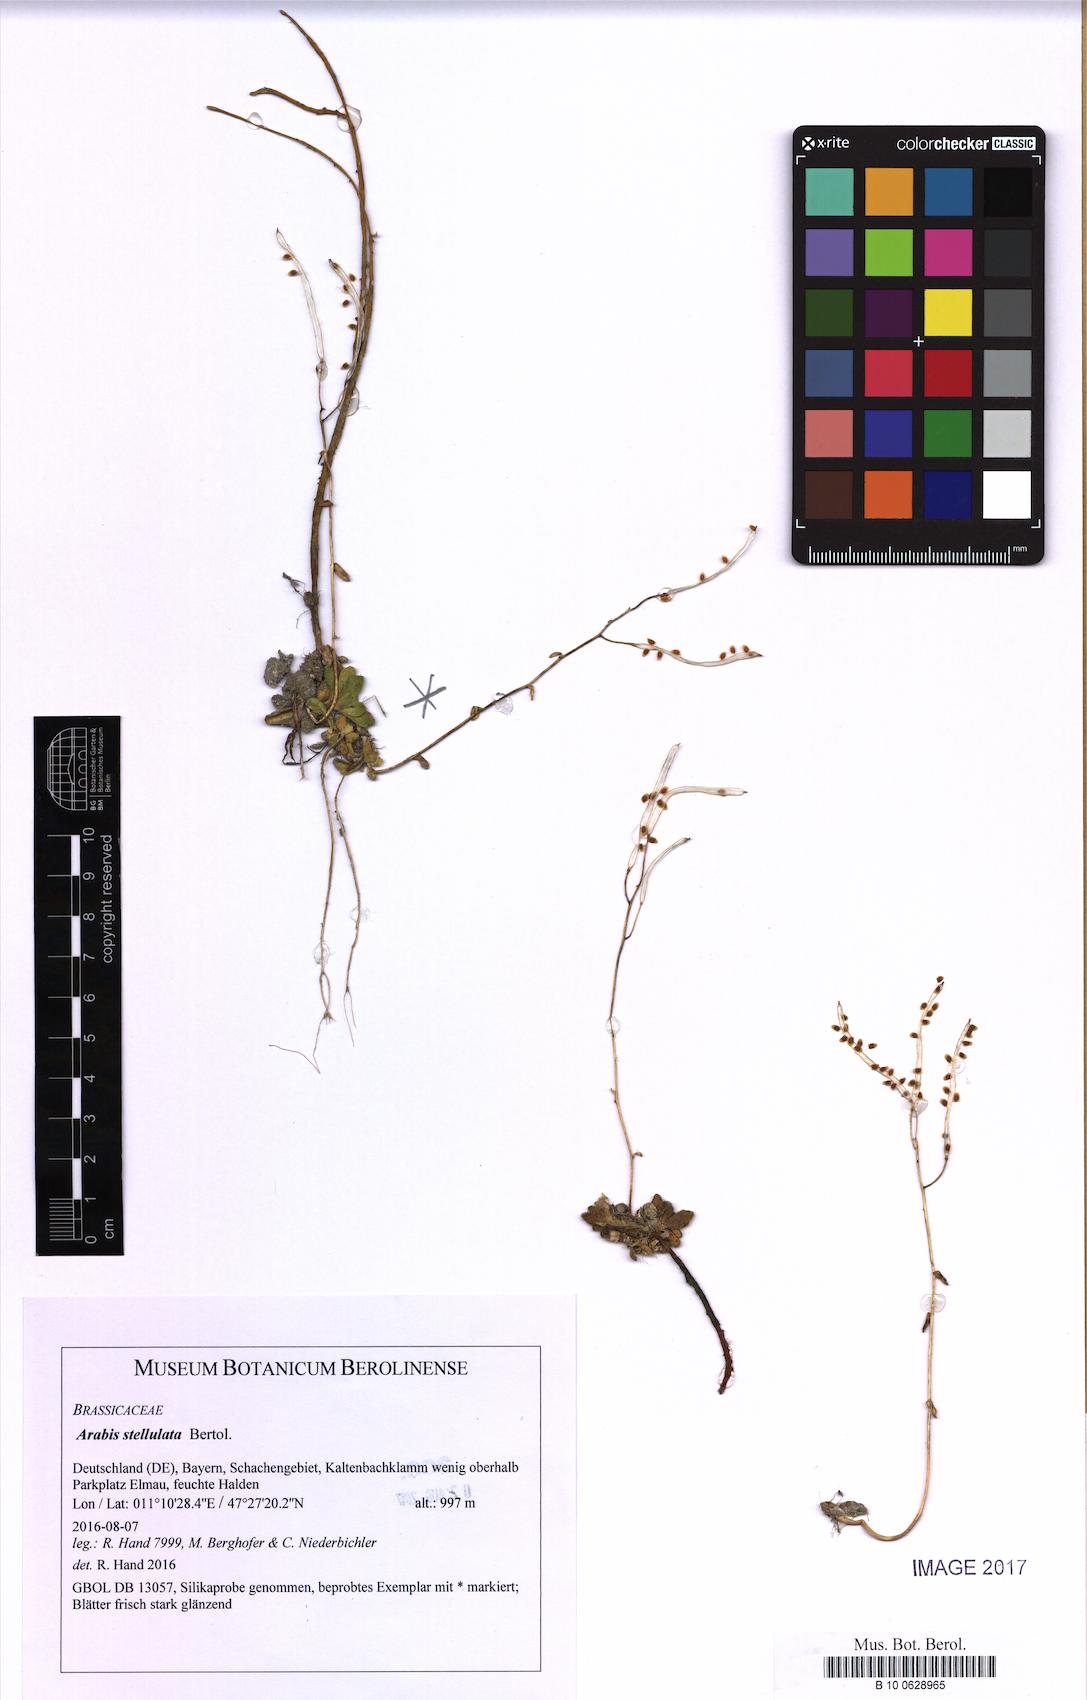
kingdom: Plantae
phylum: Tracheophyta
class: Magnoliopsida
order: Brassicales
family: Brassicaceae
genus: Arabis
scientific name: Arabis stellulata
